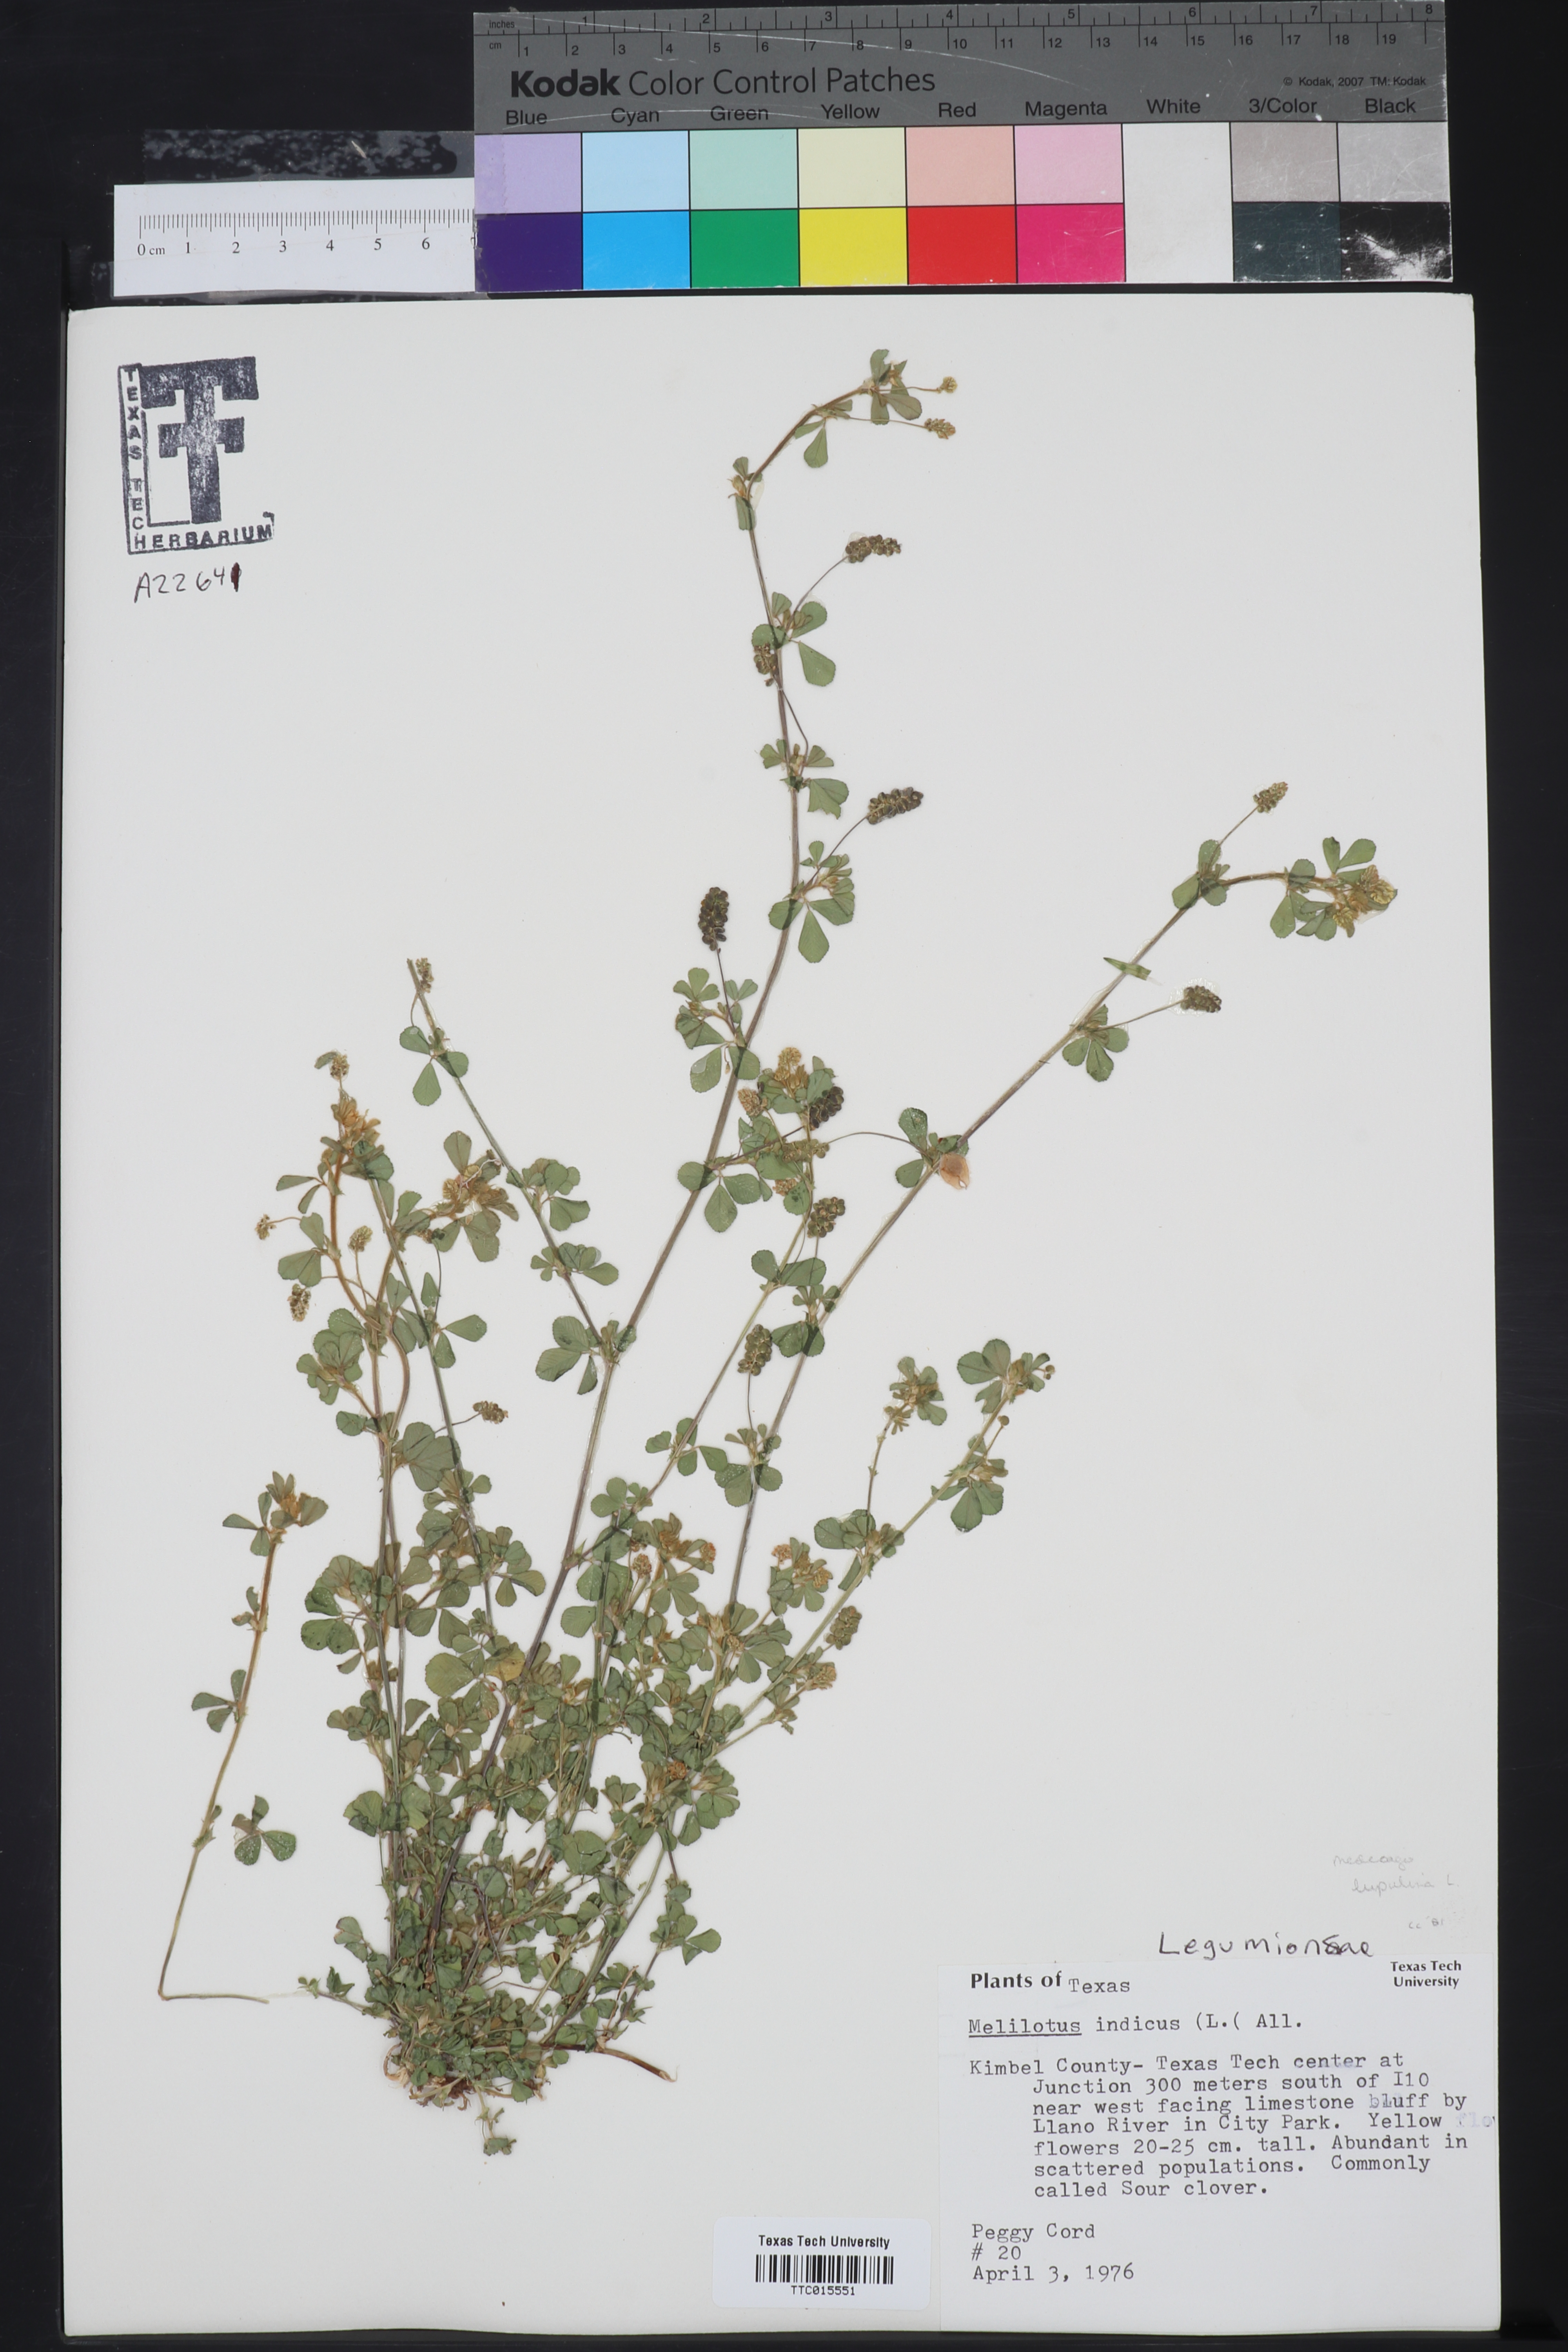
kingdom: Plantae
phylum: Tracheophyta
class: Magnoliopsida
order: Fabales
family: Fabaceae
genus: Melilotus
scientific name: Melilotus indicus
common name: Small melilot
